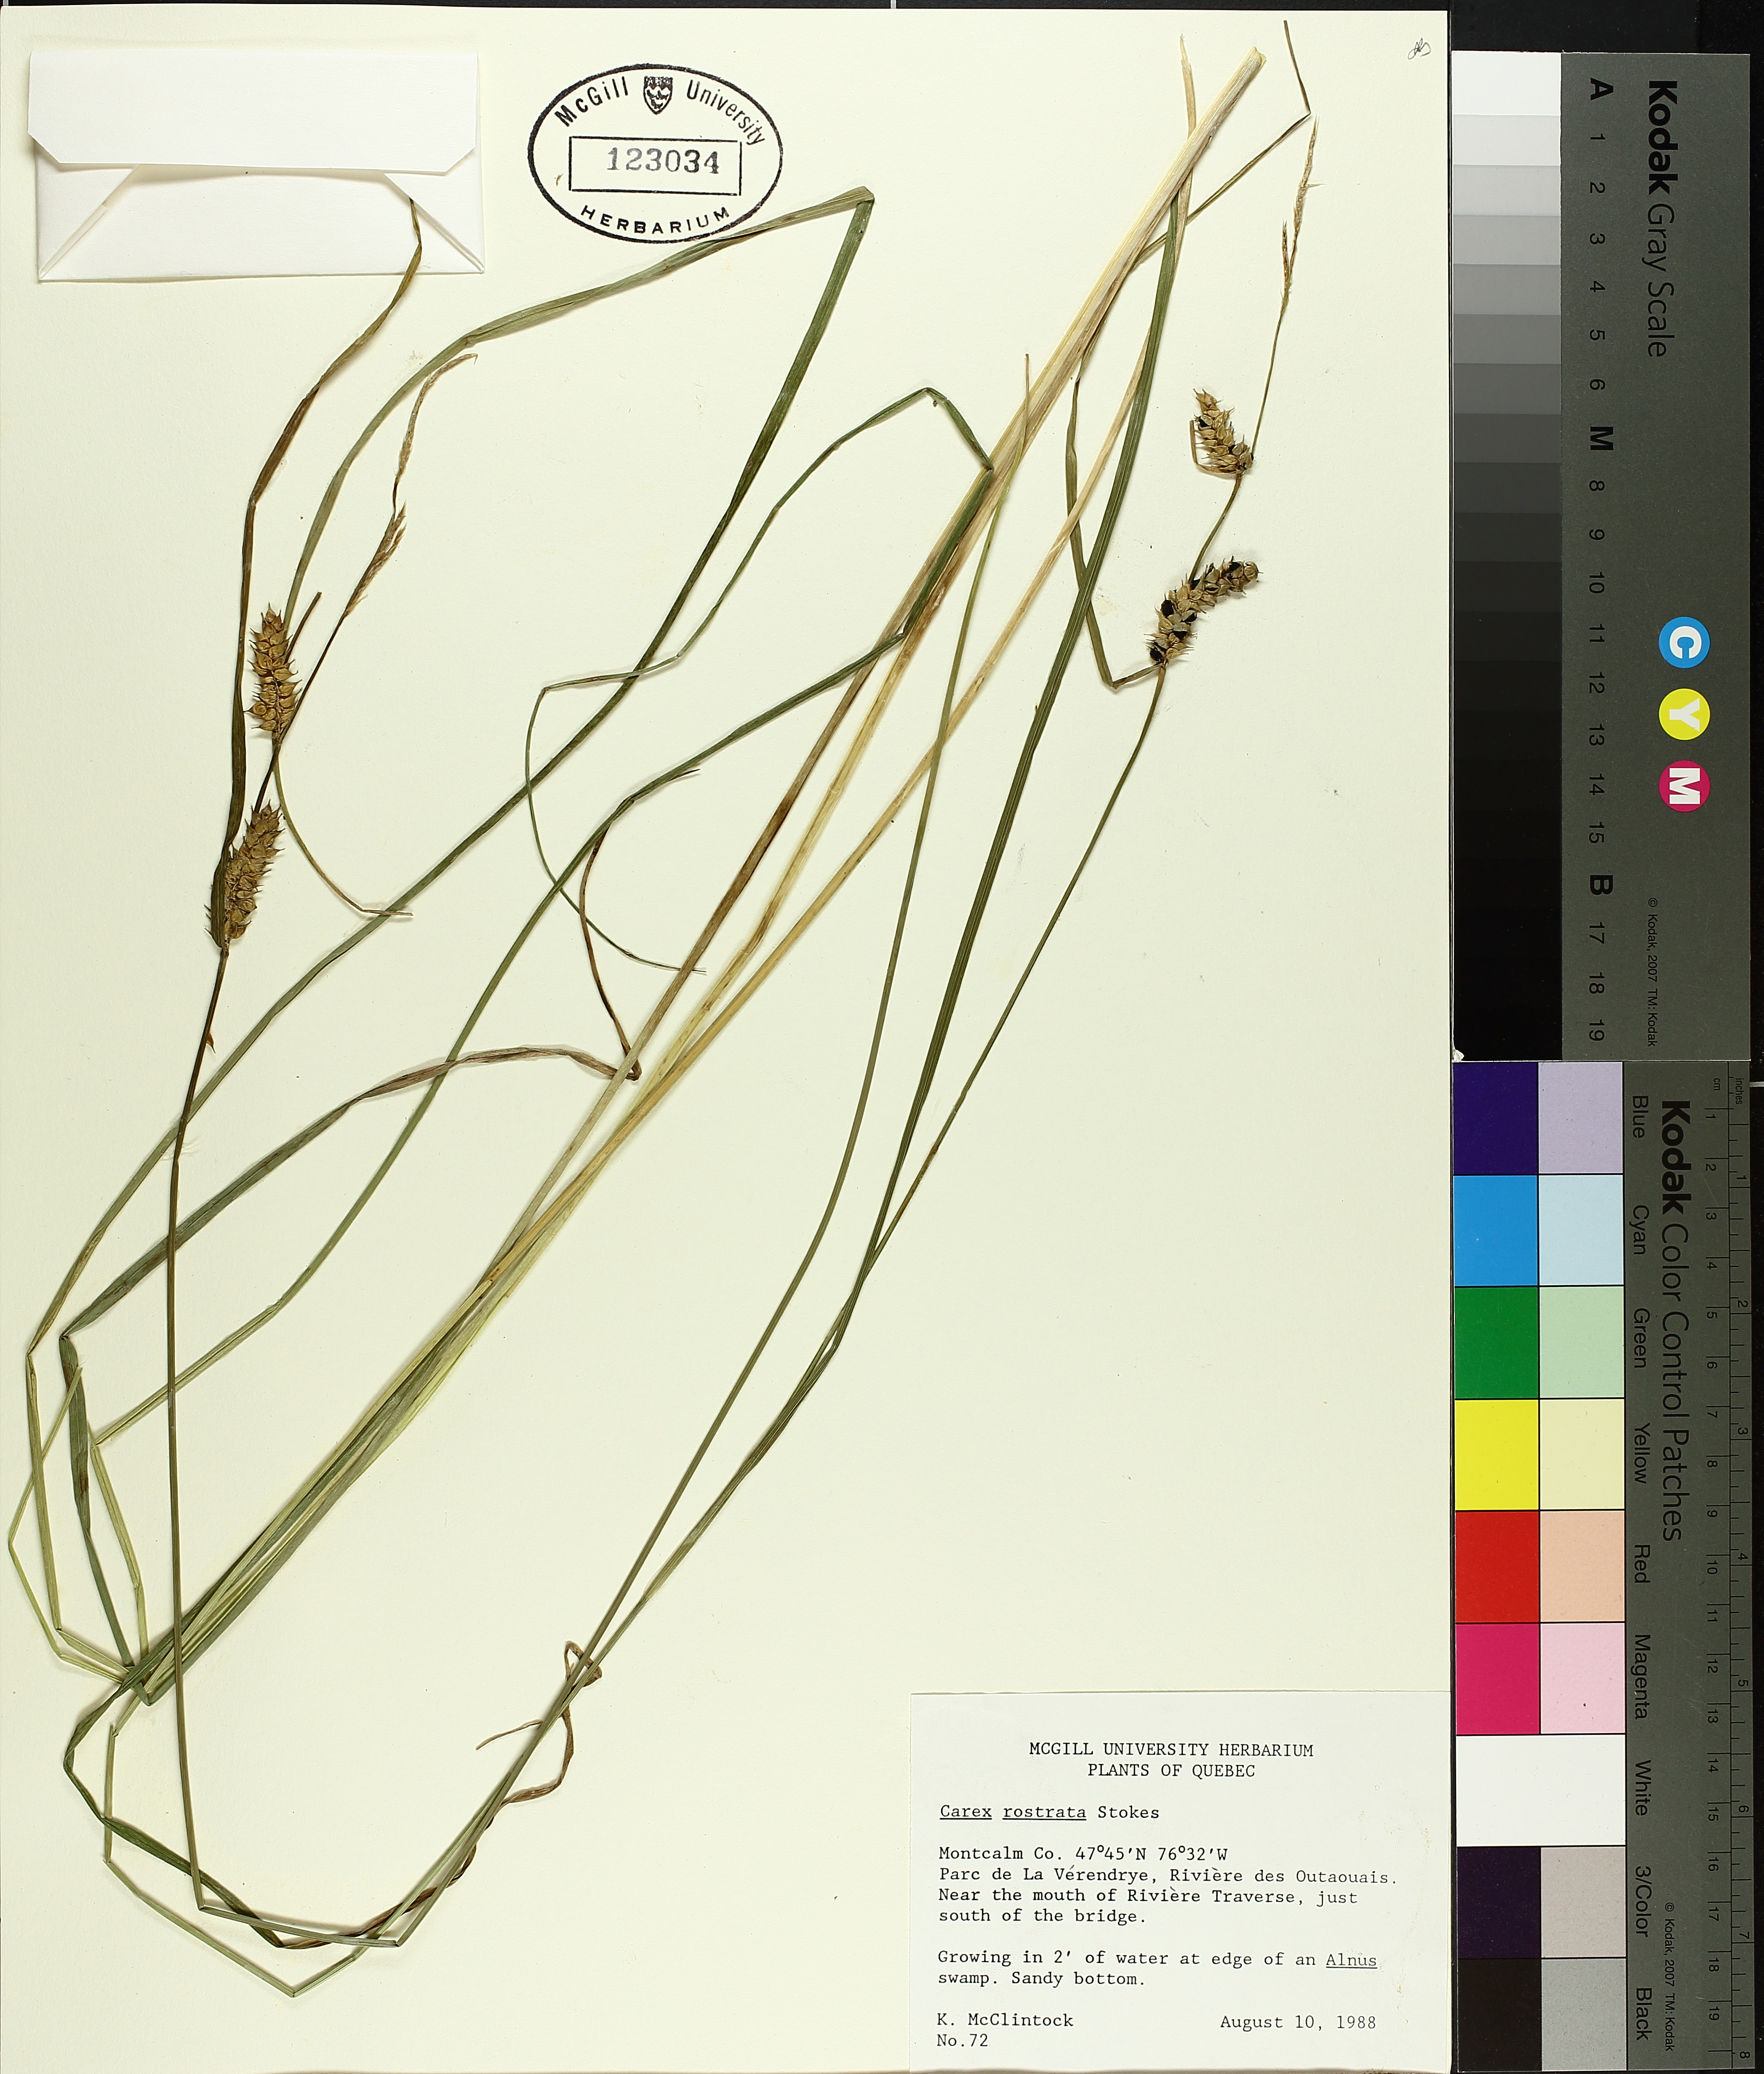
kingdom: Plantae
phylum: Tracheophyta
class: Liliopsida
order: Poales
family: Cyperaceae
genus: Carex
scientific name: Carex rostrata
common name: Bottle sedge
